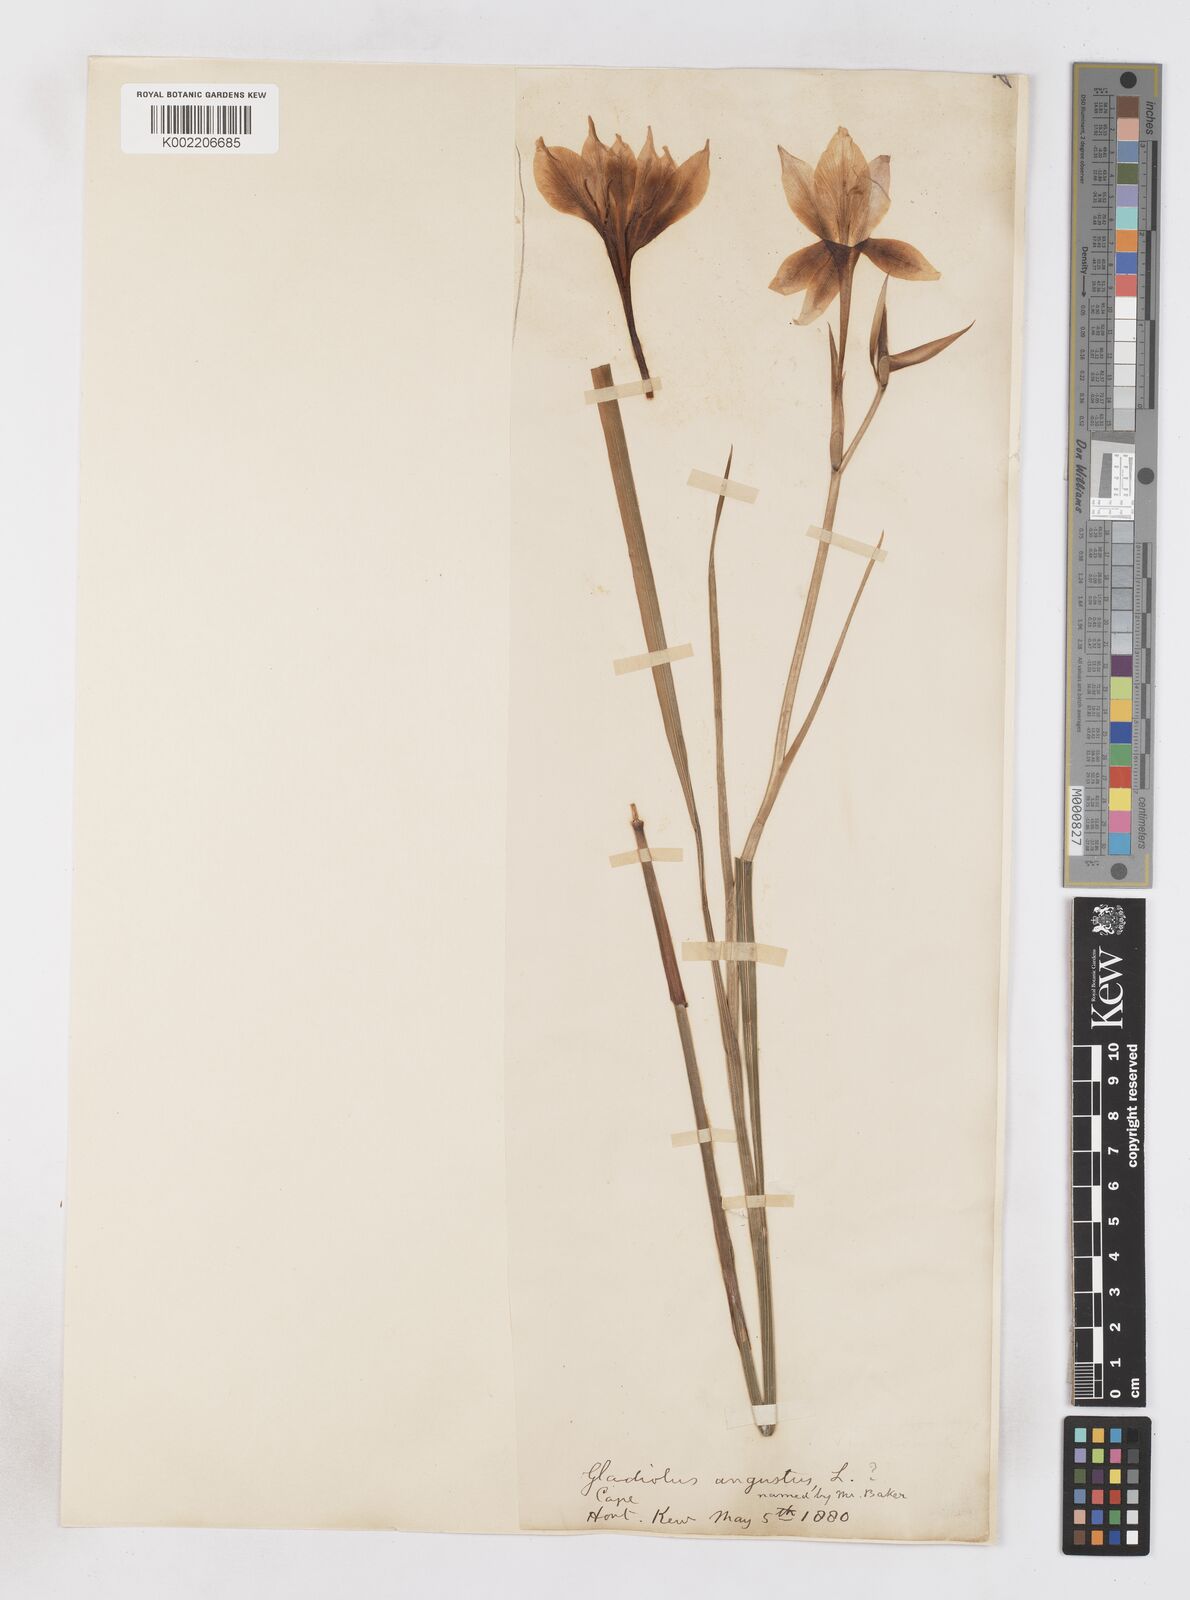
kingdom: Plantae
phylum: Tracheophyta
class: Liliopsida
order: Asparagales
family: Iridaceae
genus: Gladiolus
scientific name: Gladiolus angustus
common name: Painted-lady
